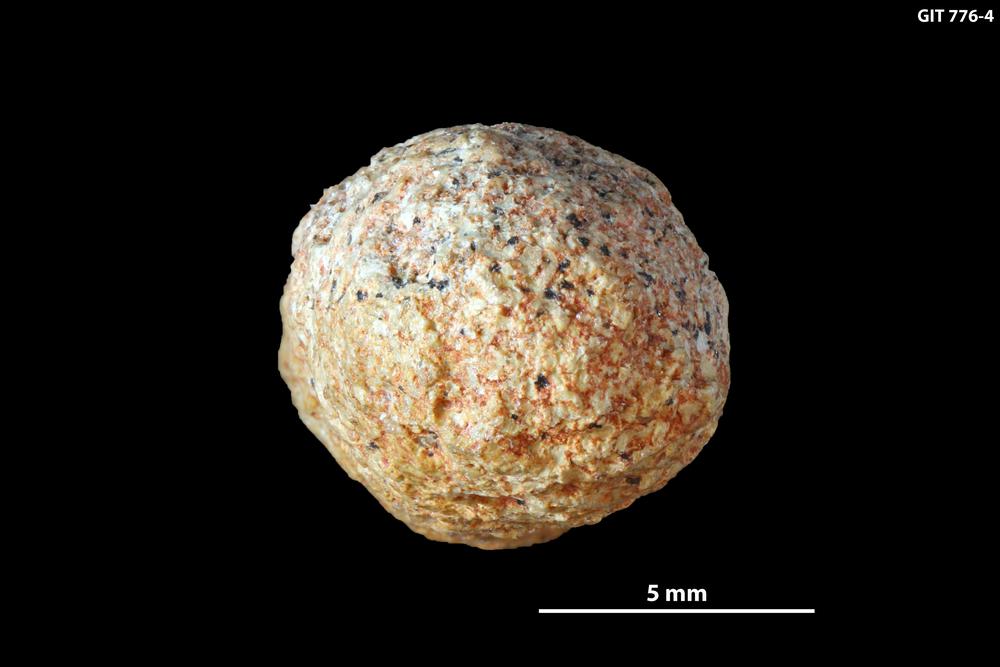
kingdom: Animalia
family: Coprulidae
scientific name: Coprulidae
